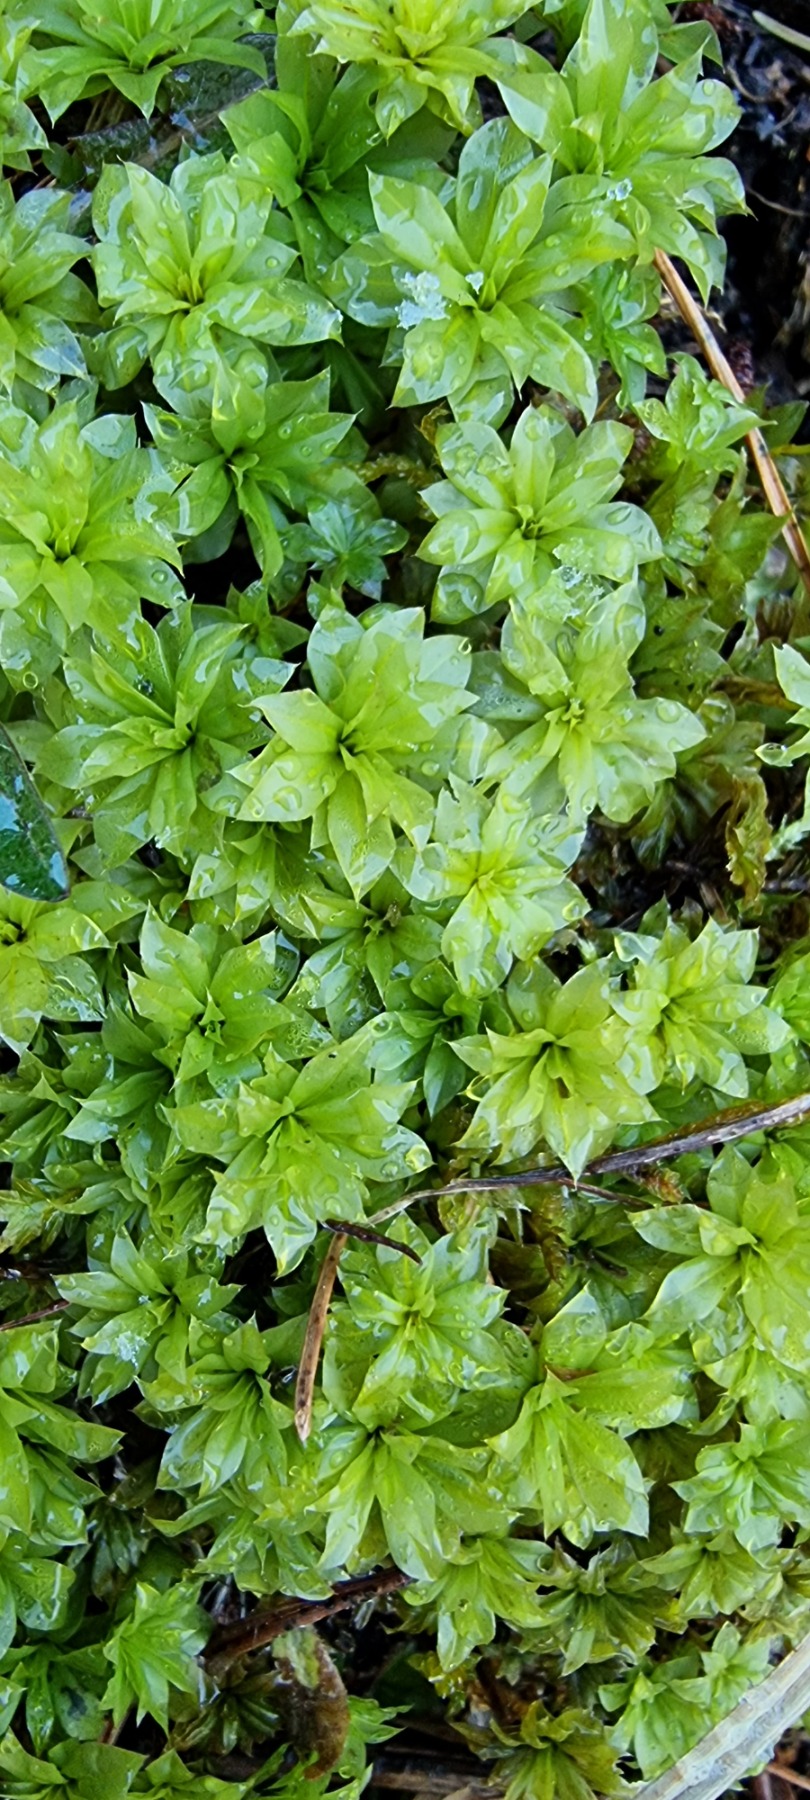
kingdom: Plantae
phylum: Bryophyta
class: Bryopsida
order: Bryales
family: Bryaceae
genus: Rhodobryum
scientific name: Rhodobryum roseum
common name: Stor rosetmos
